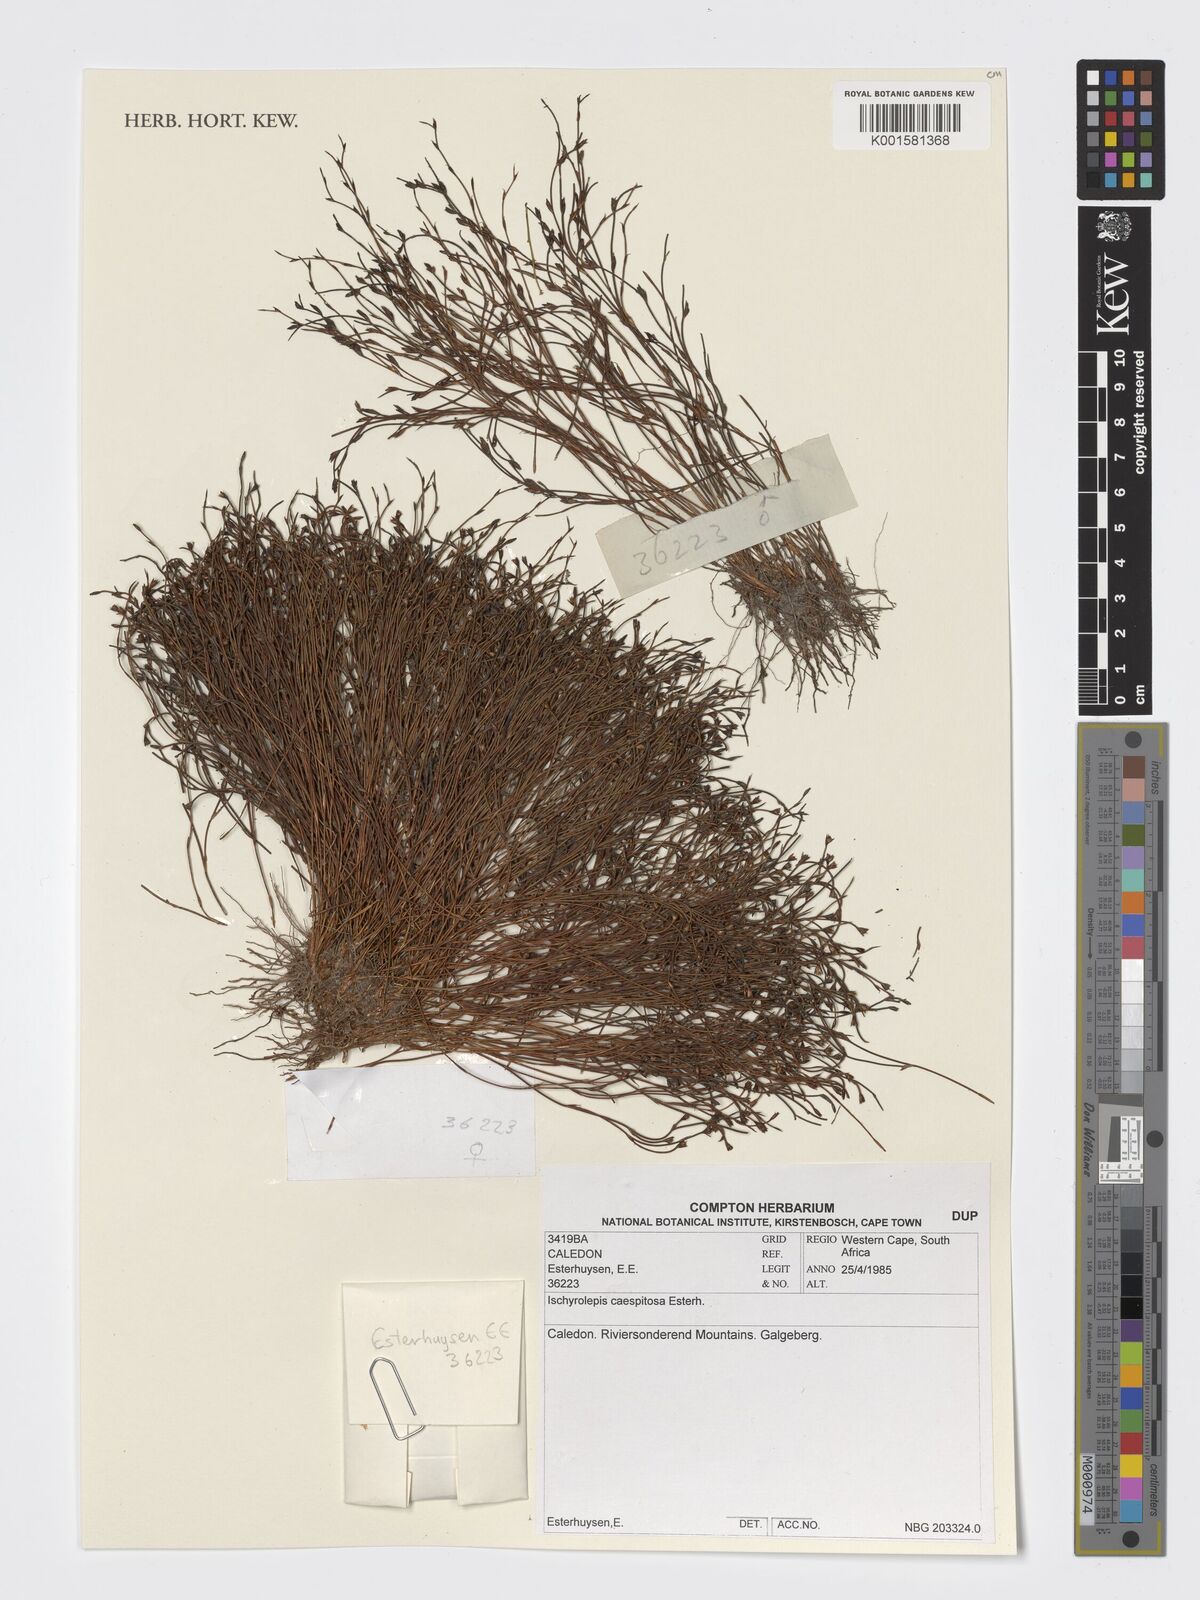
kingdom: Plantae
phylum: Tracheophyta
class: Liliopsida
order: Poales
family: Restionaceae
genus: Restio
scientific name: Restio caespitosus
